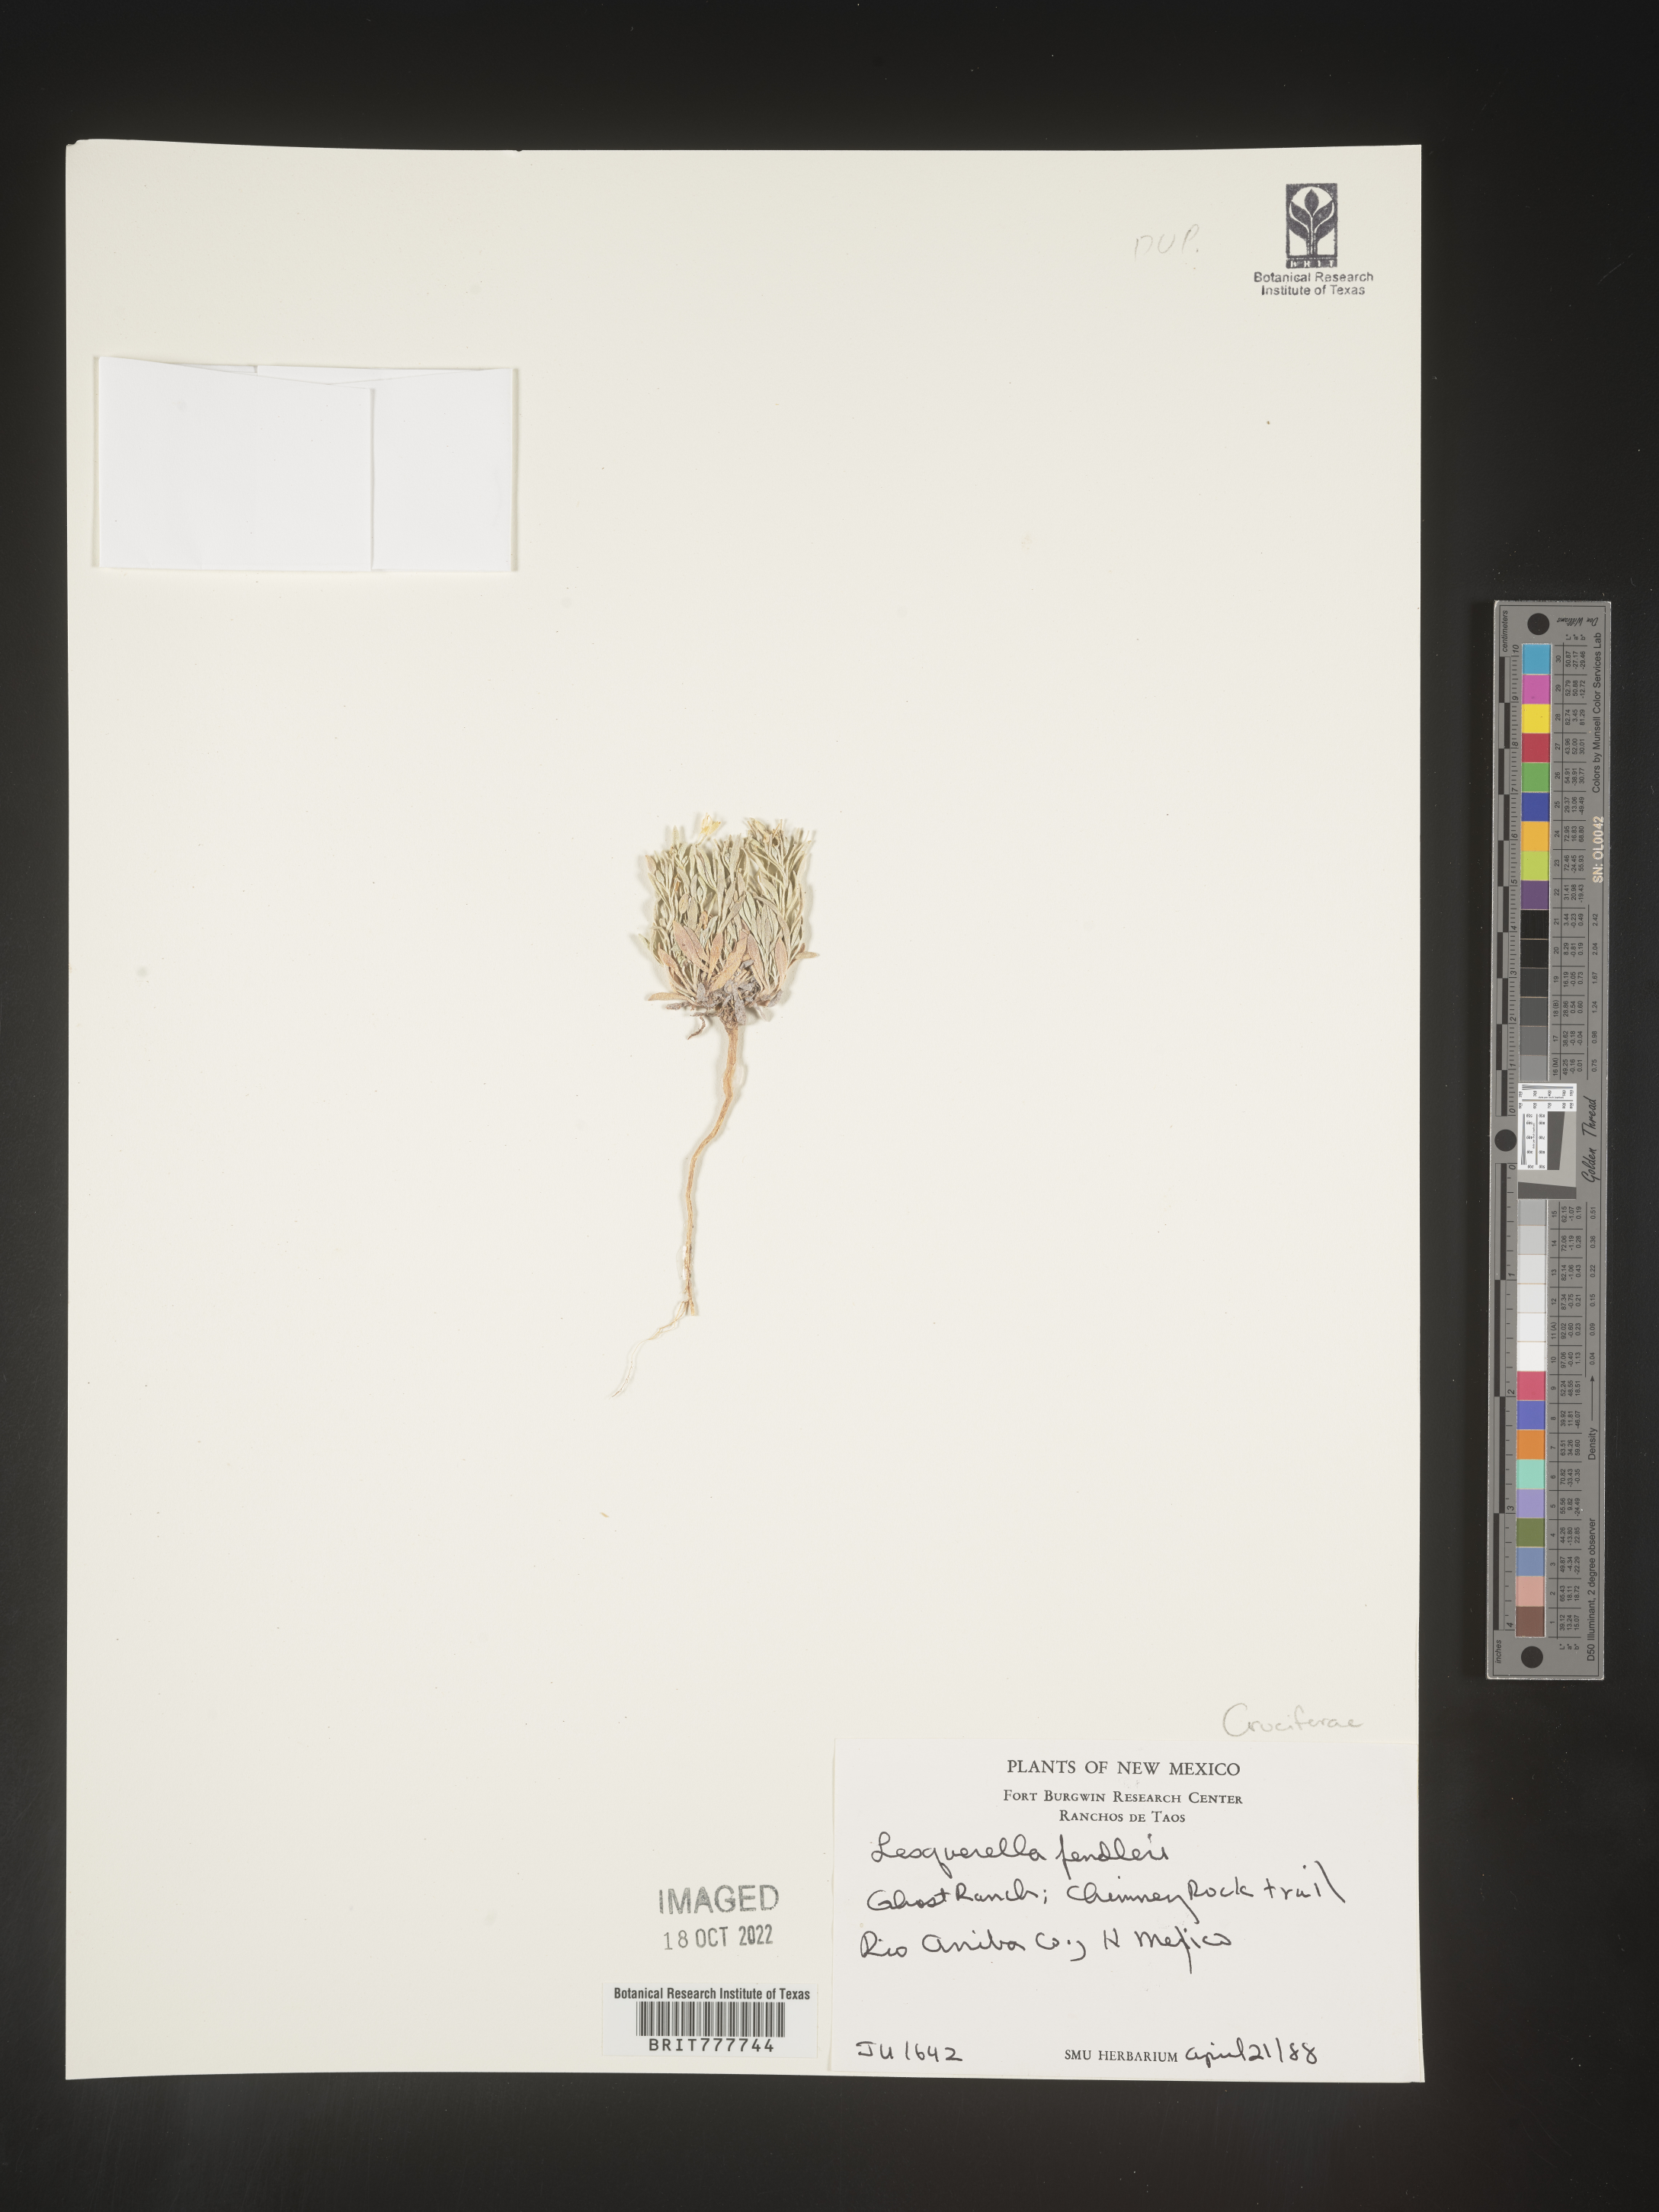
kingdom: Plantae
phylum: Tracheophyta
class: Magnoliopsida
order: Brassicales
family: Brassicaceae
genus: Physaria
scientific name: Physaria fendleri
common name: Fendler's bladderpod
